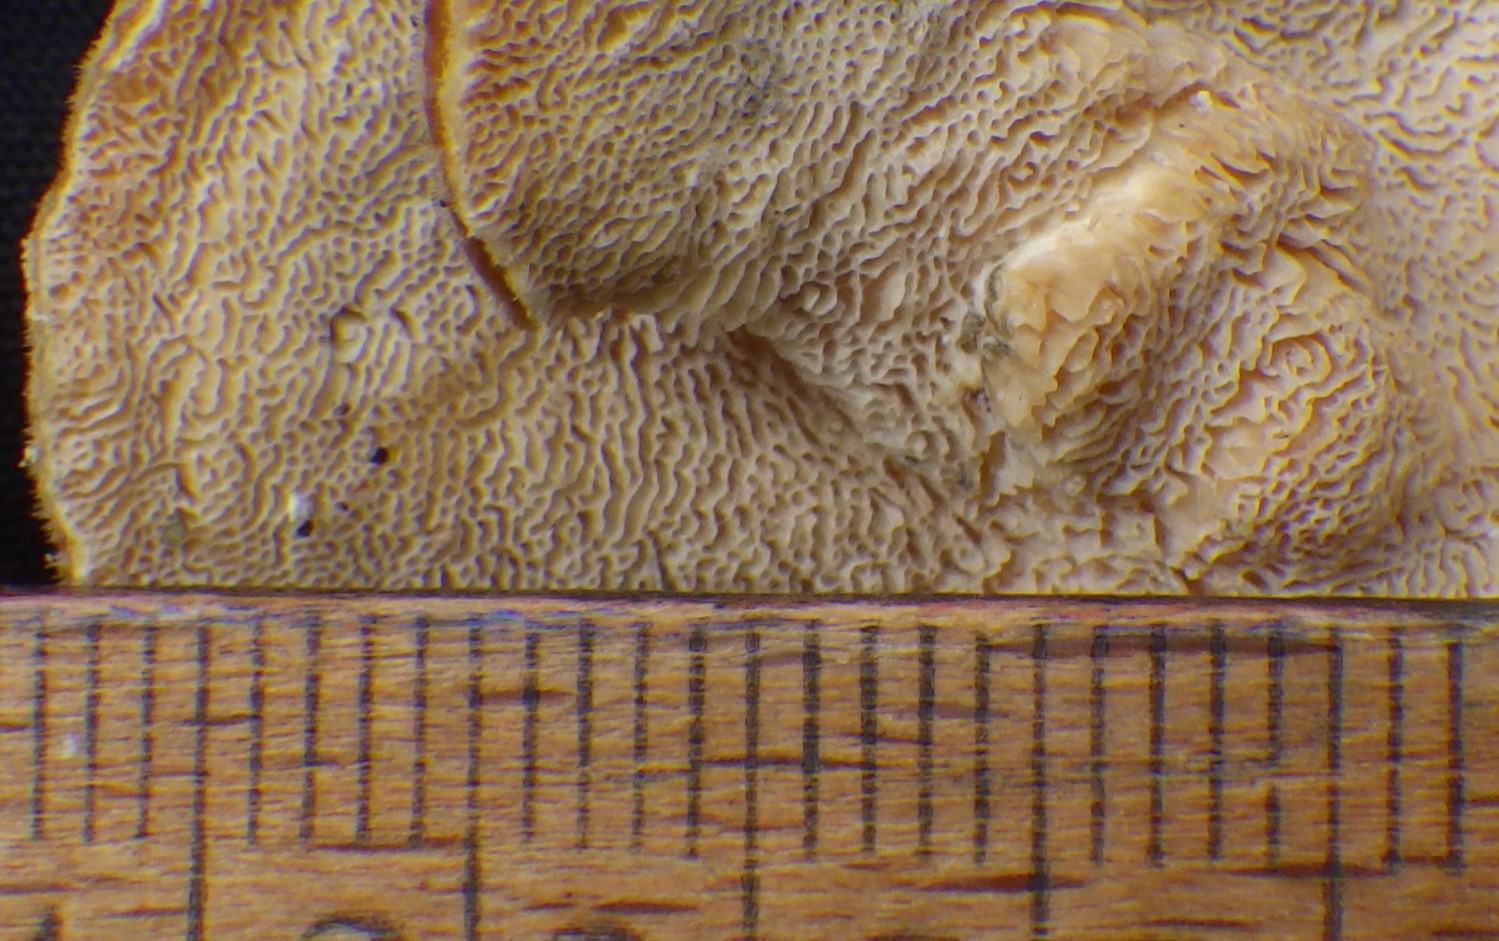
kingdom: Fungi
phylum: Basidiomycota
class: Agaricomycetes
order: Polyporales
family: Polyporaceae
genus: Trametes
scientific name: Trametes ochracea
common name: bæltet læderporesvamp
